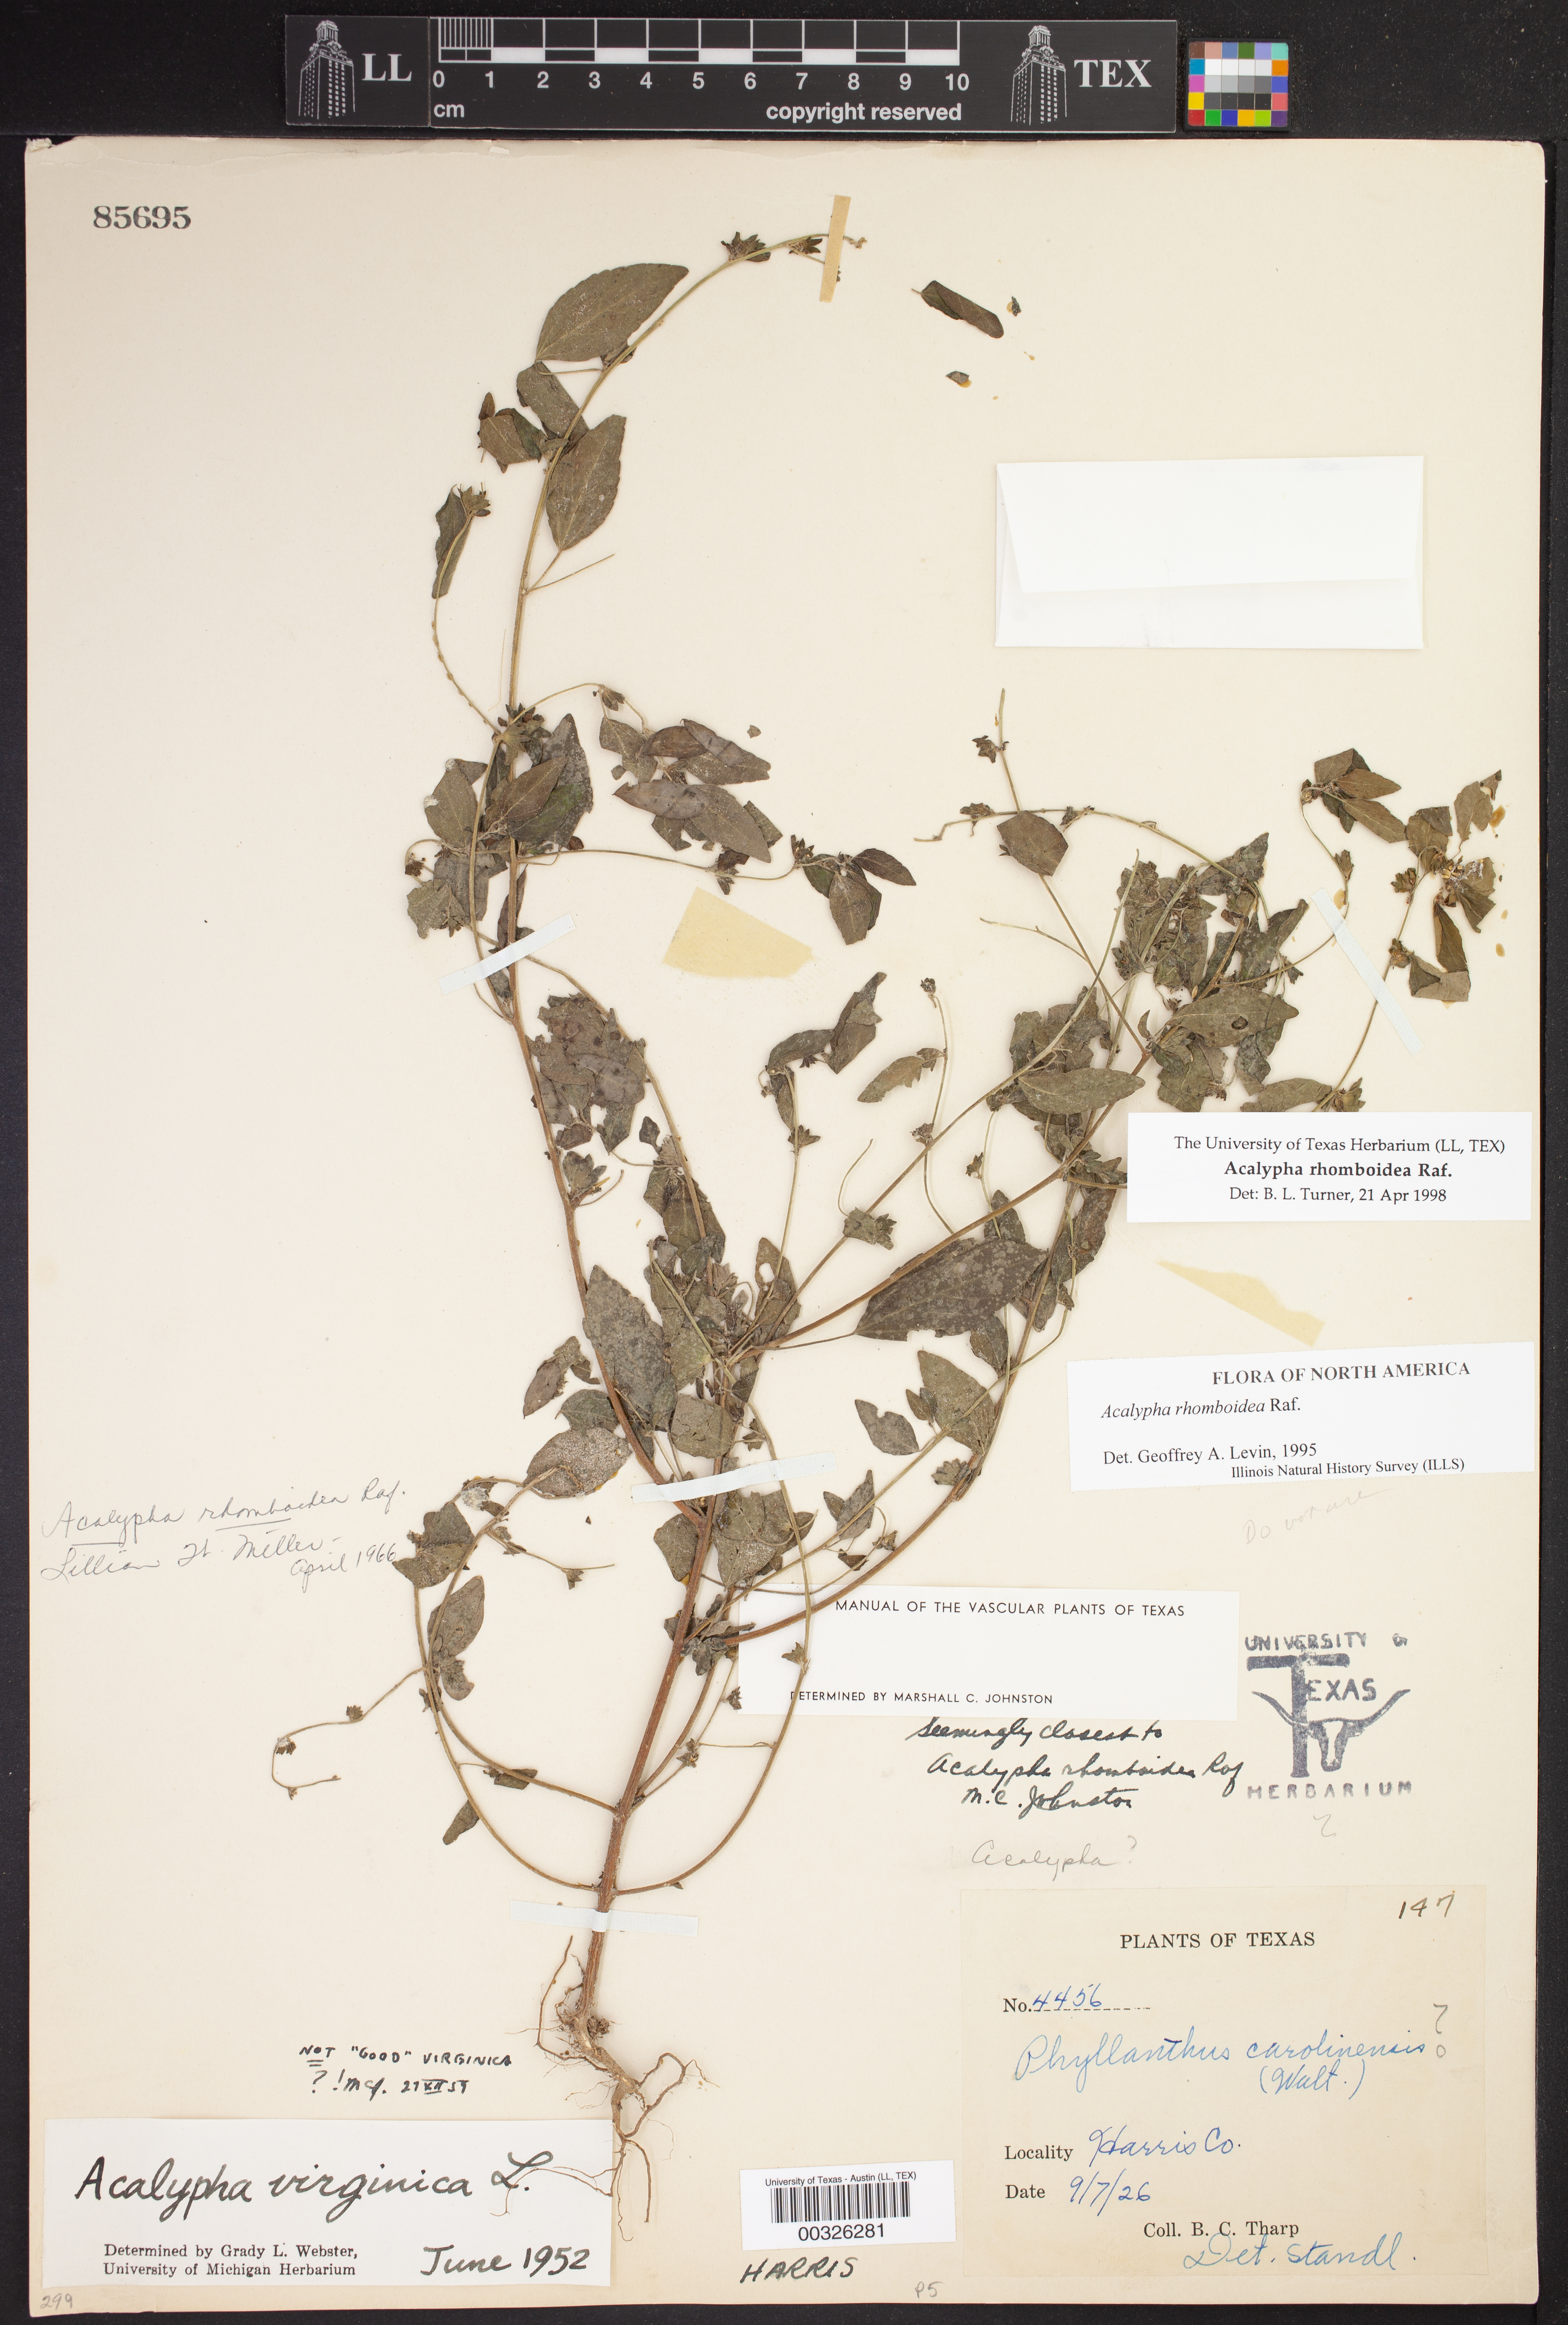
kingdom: Plantae
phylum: Tracheophyta
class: Magnoliopsida
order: Malpighiales
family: Euphorbiaceae
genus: Acalypha
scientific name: Acalypha rhomboidea
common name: Rhombic copperleaf
